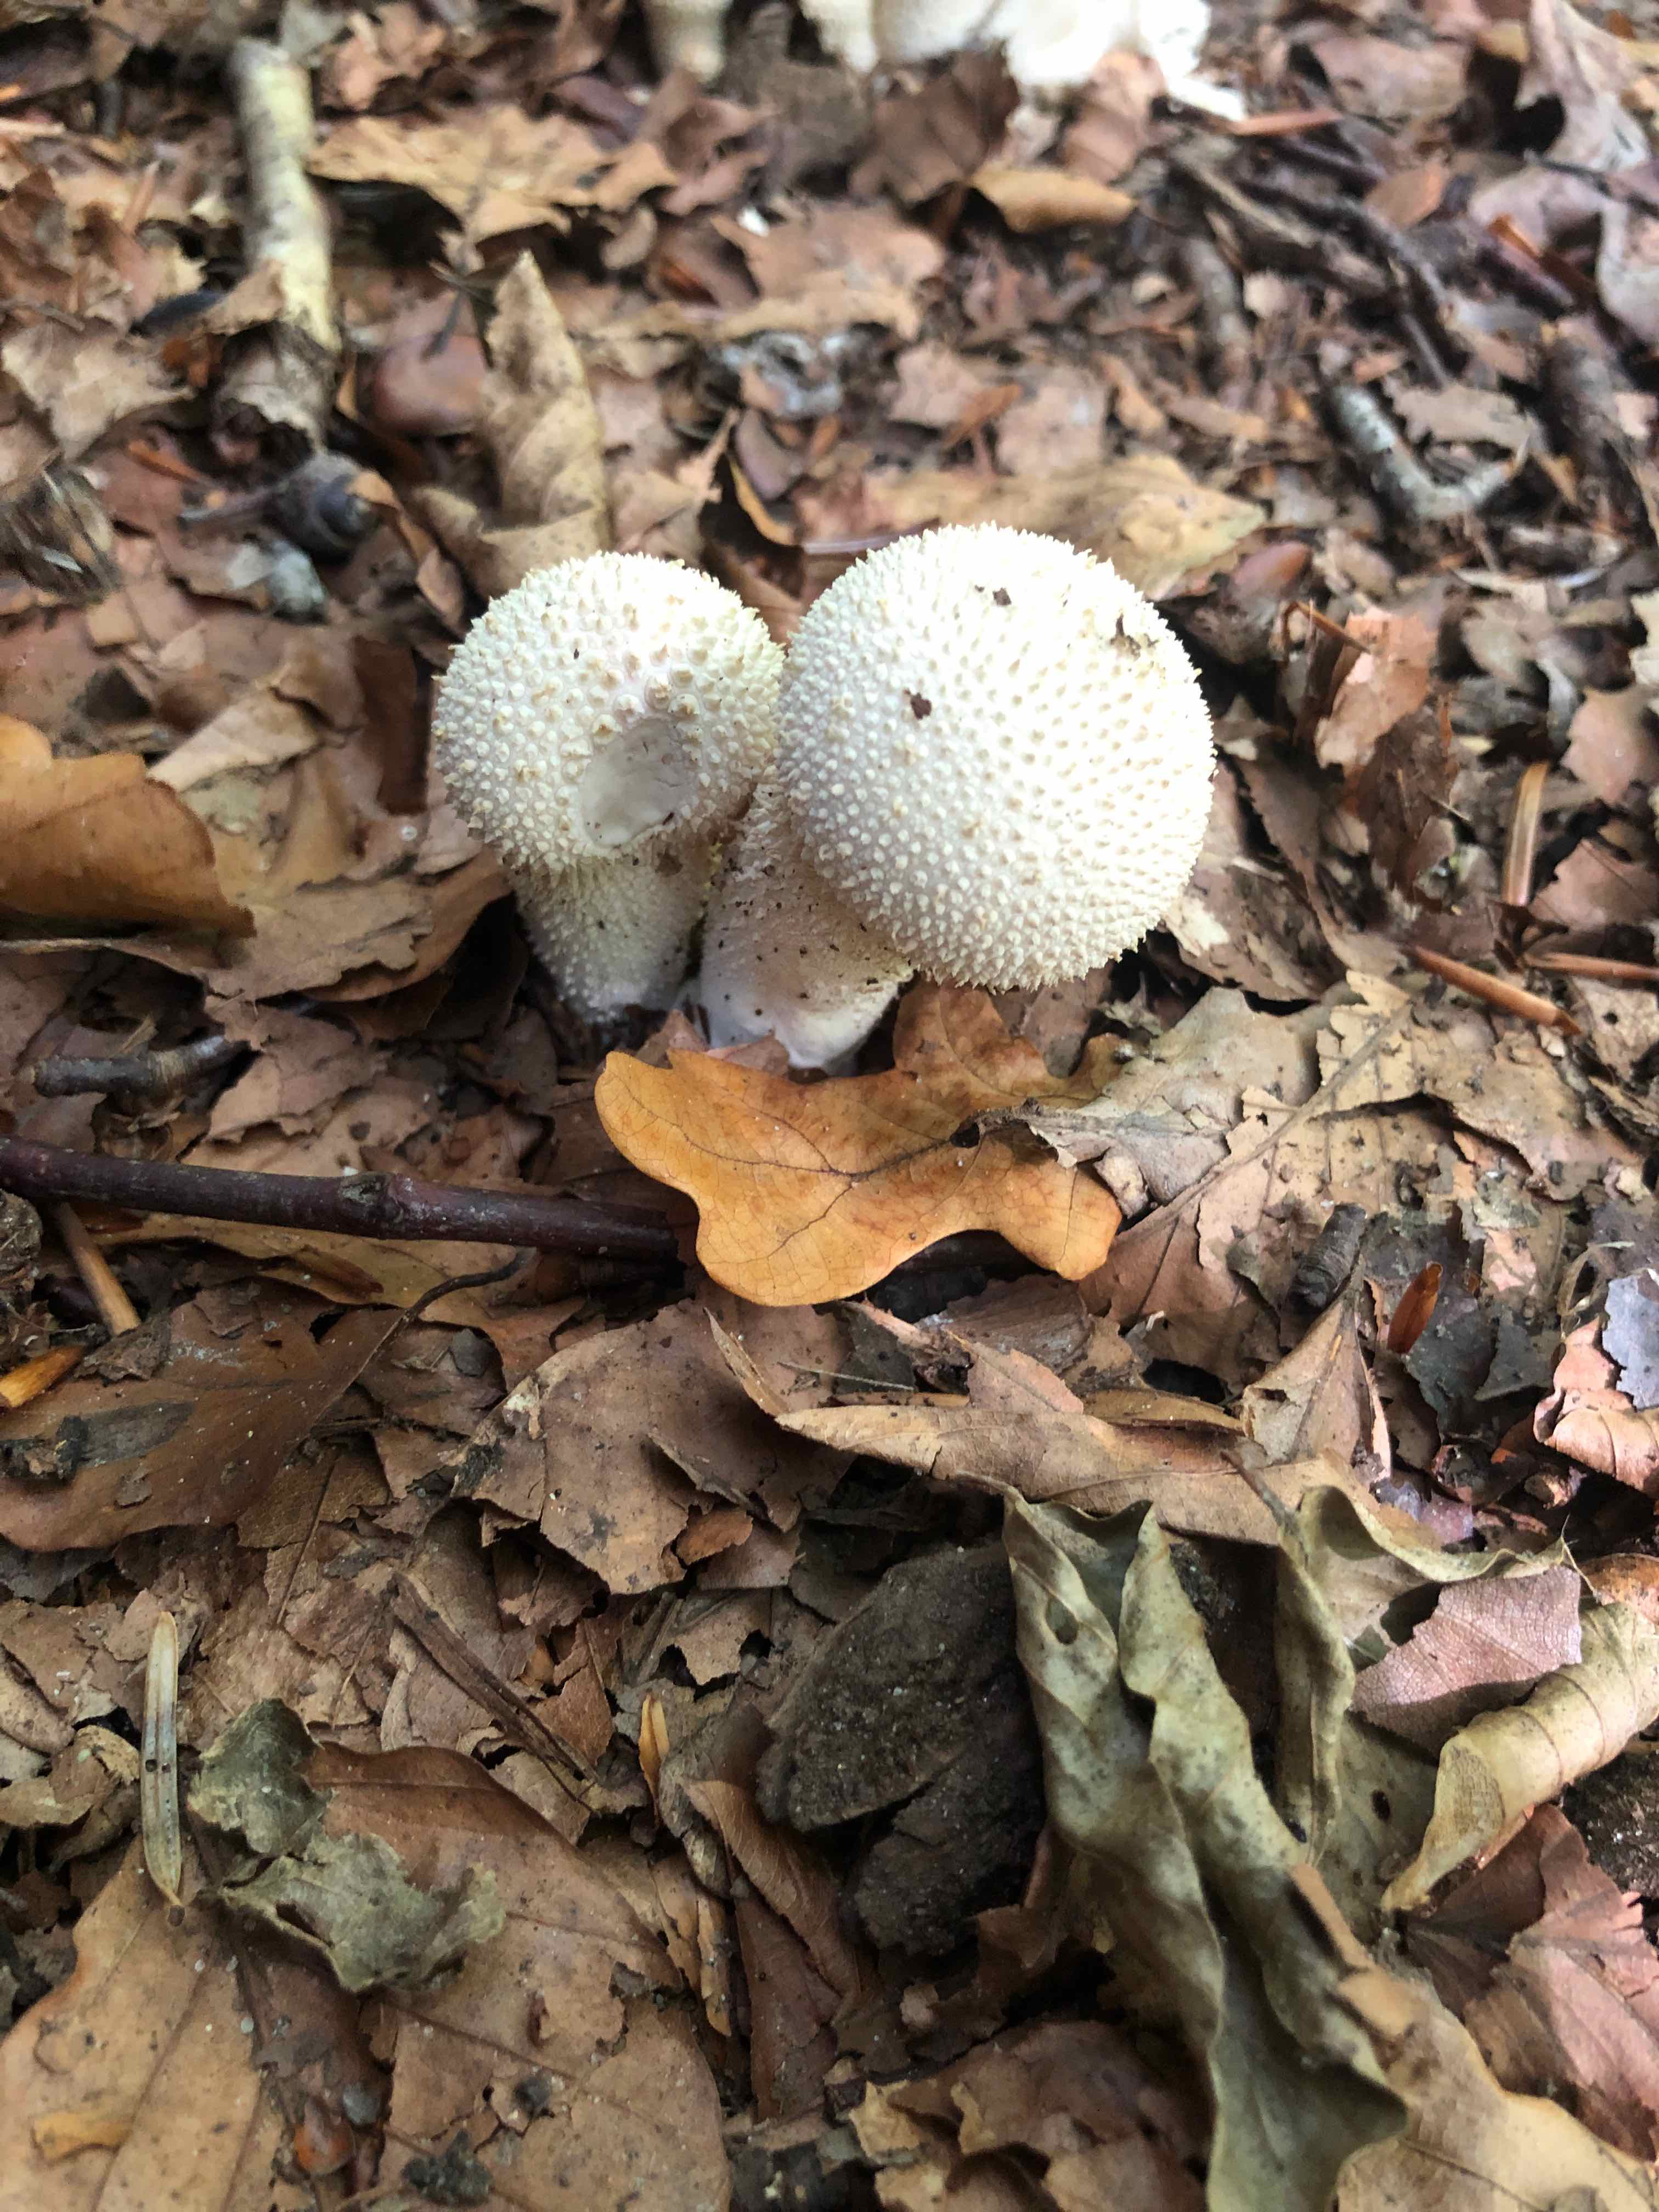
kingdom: Fungi
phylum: Basidiomycota
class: Agaricomycetes
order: Agaricales
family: Lycoperdaceae
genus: Lycoperdon
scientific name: Lycoperdon perlatum
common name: krystal-støvbold
